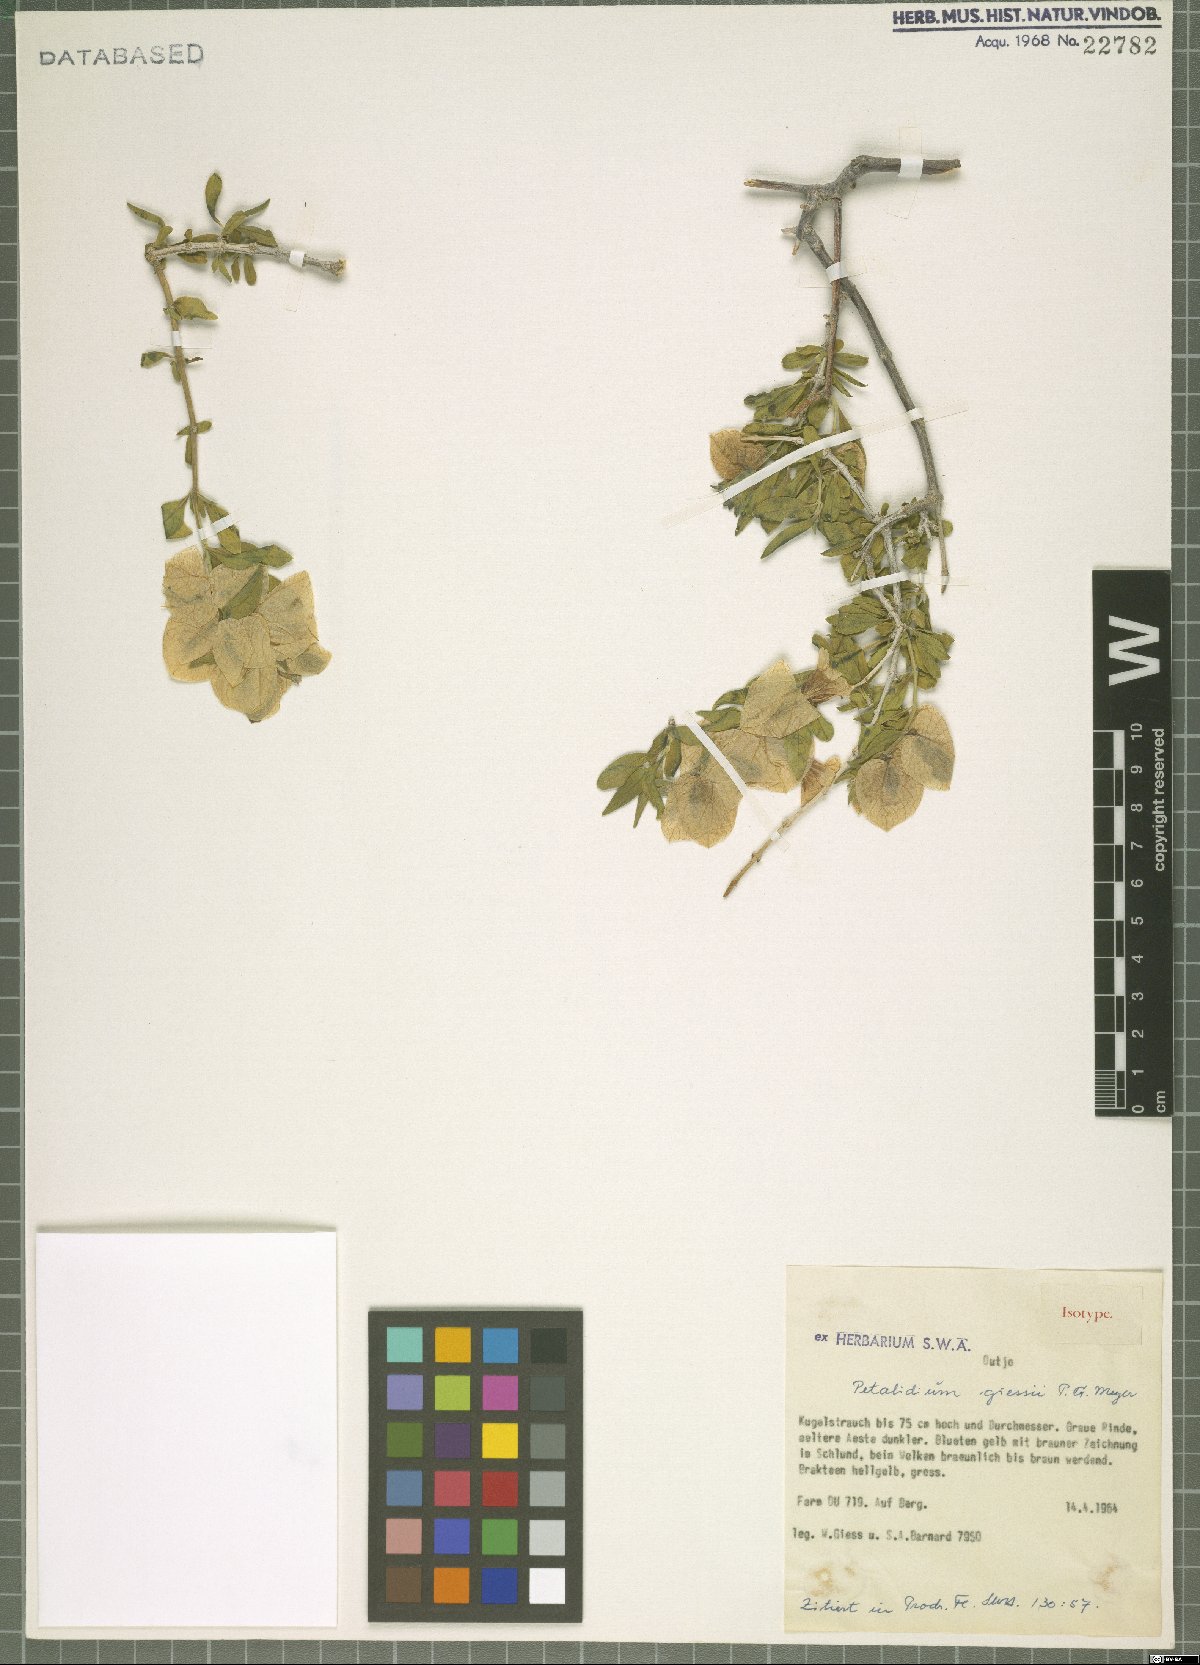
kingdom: Plantae
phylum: Tracheophyta
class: Magnoliopsida
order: Lamiales
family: Acanthaceae
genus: Petalidium
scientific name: Petalidium giessii
